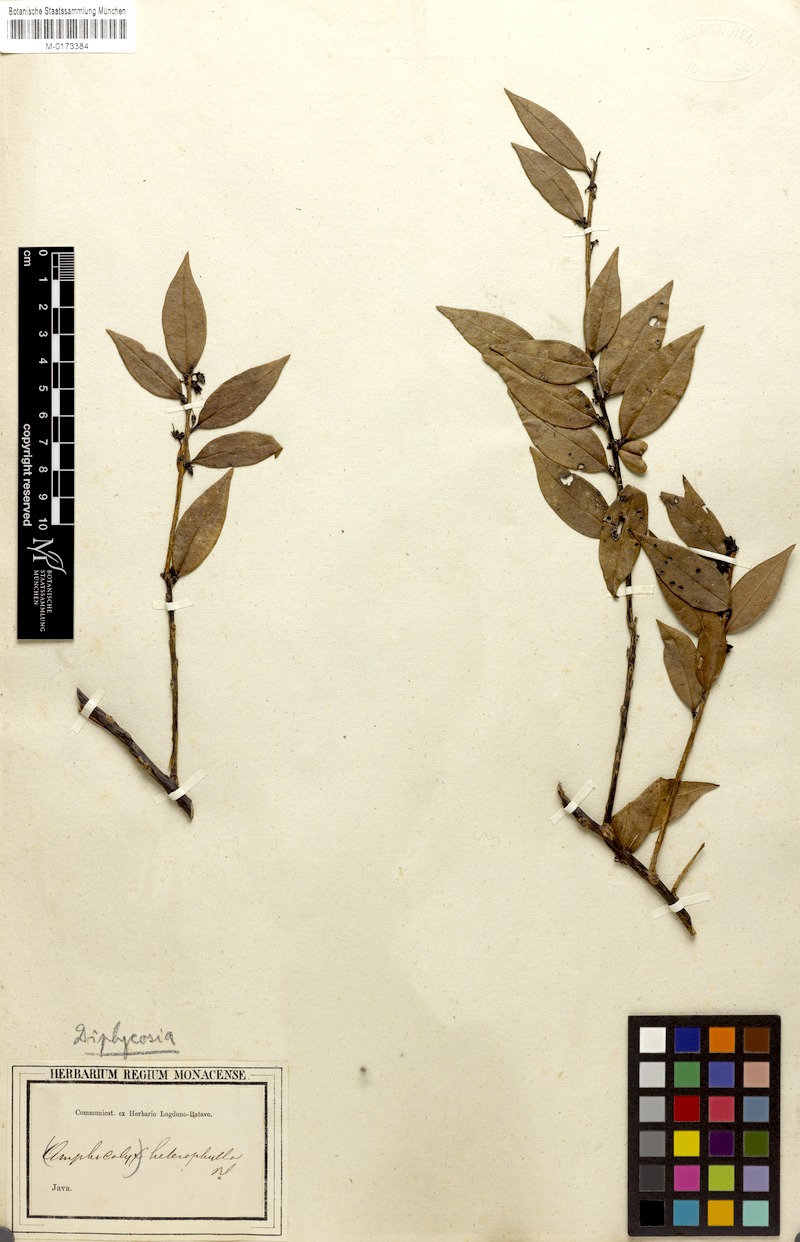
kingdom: Plantae
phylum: Tracheophyta
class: Magnoliopsida
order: Ericales
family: Ericaceae
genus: Gaultheria
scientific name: Gaultheria heterophylla
